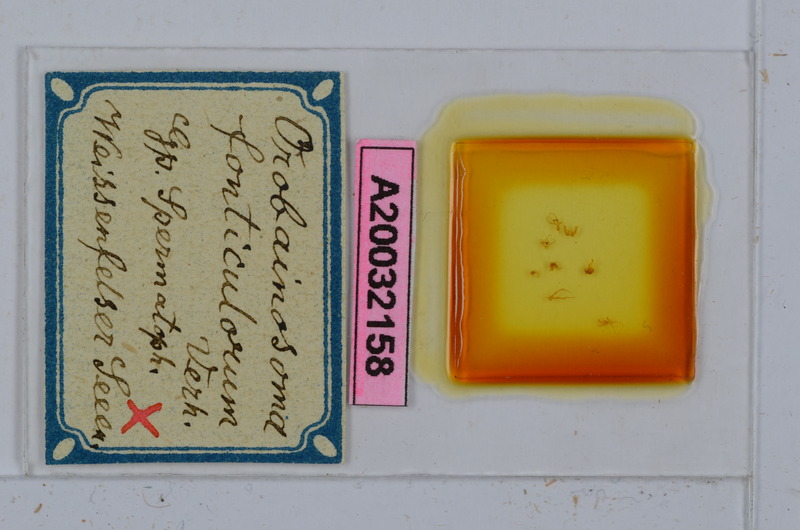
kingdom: Animalia
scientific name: Animalia
